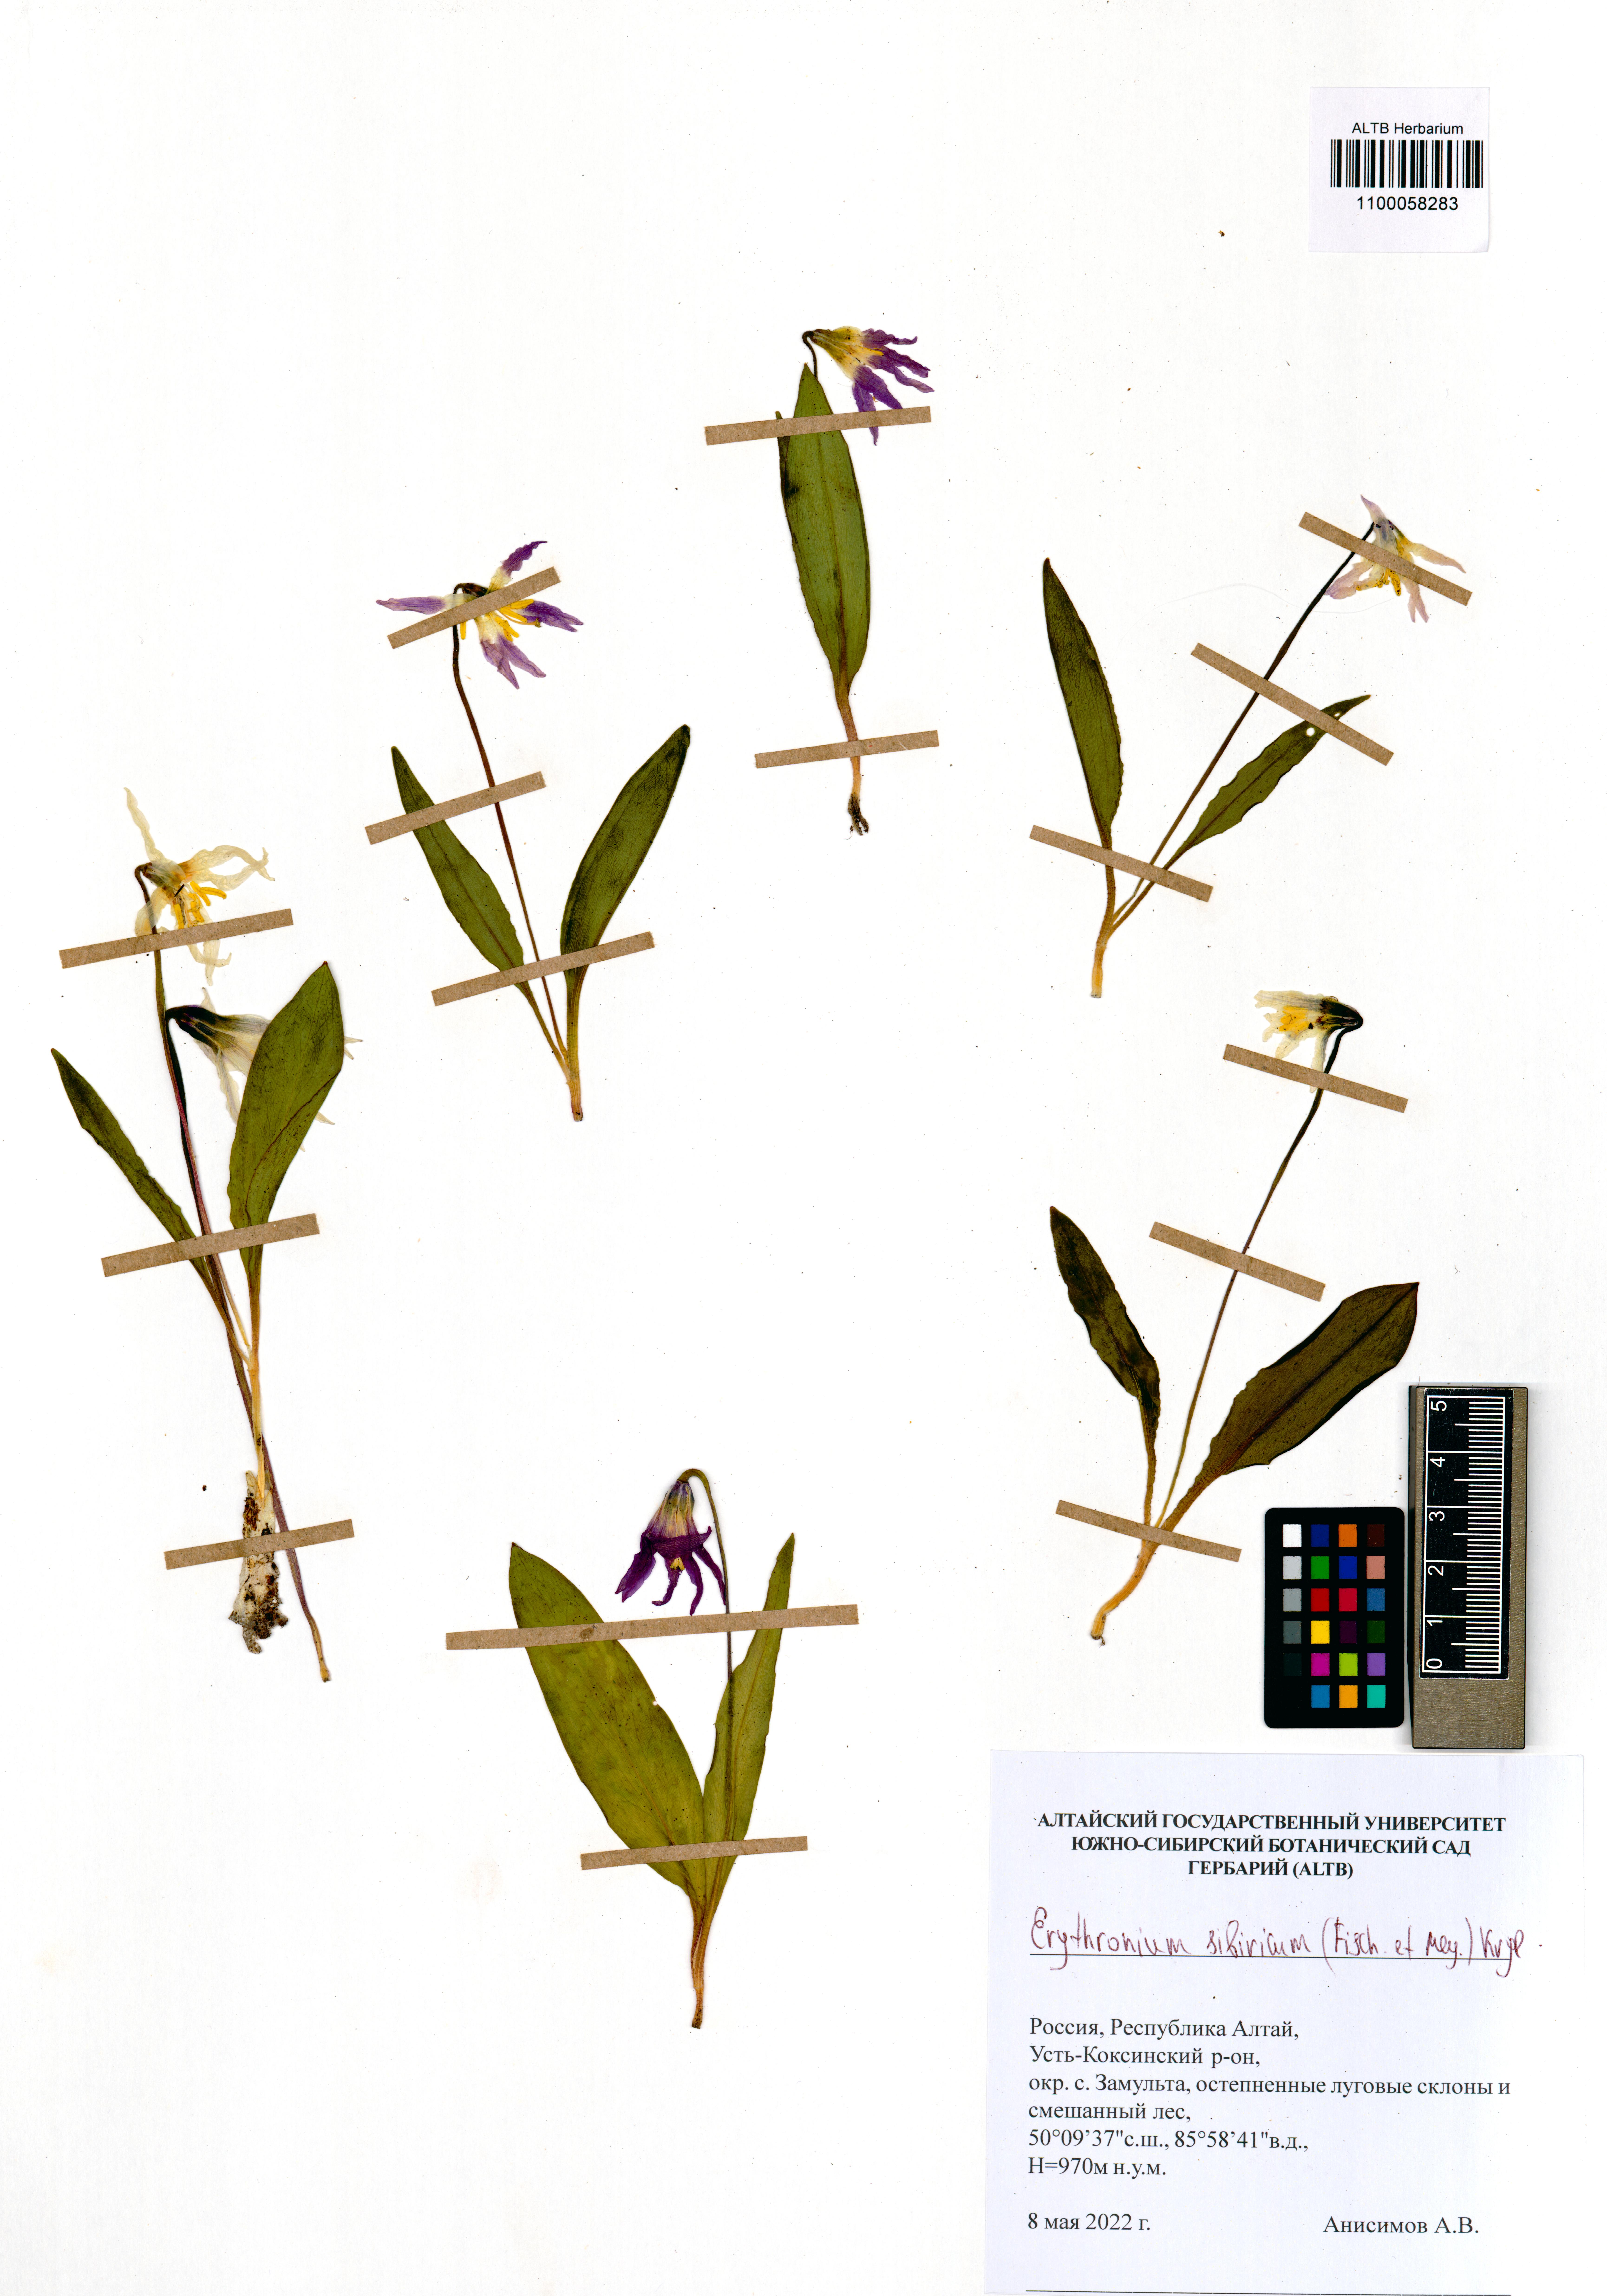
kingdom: Plantae
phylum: Tracheophyta
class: Liliopsida
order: Liliales
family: Liliaceae
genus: Erythronium
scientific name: Erythronium sibiricum
